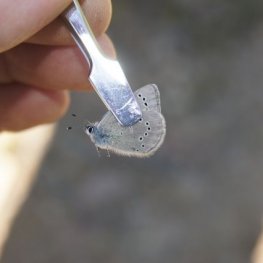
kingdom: Animalia
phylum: Arthropoda
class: Insecta
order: Lepidoptera
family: Lycaenidae
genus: Glaucopsyche
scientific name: Glaucopsyche lygdamus
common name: Silvery Blue
